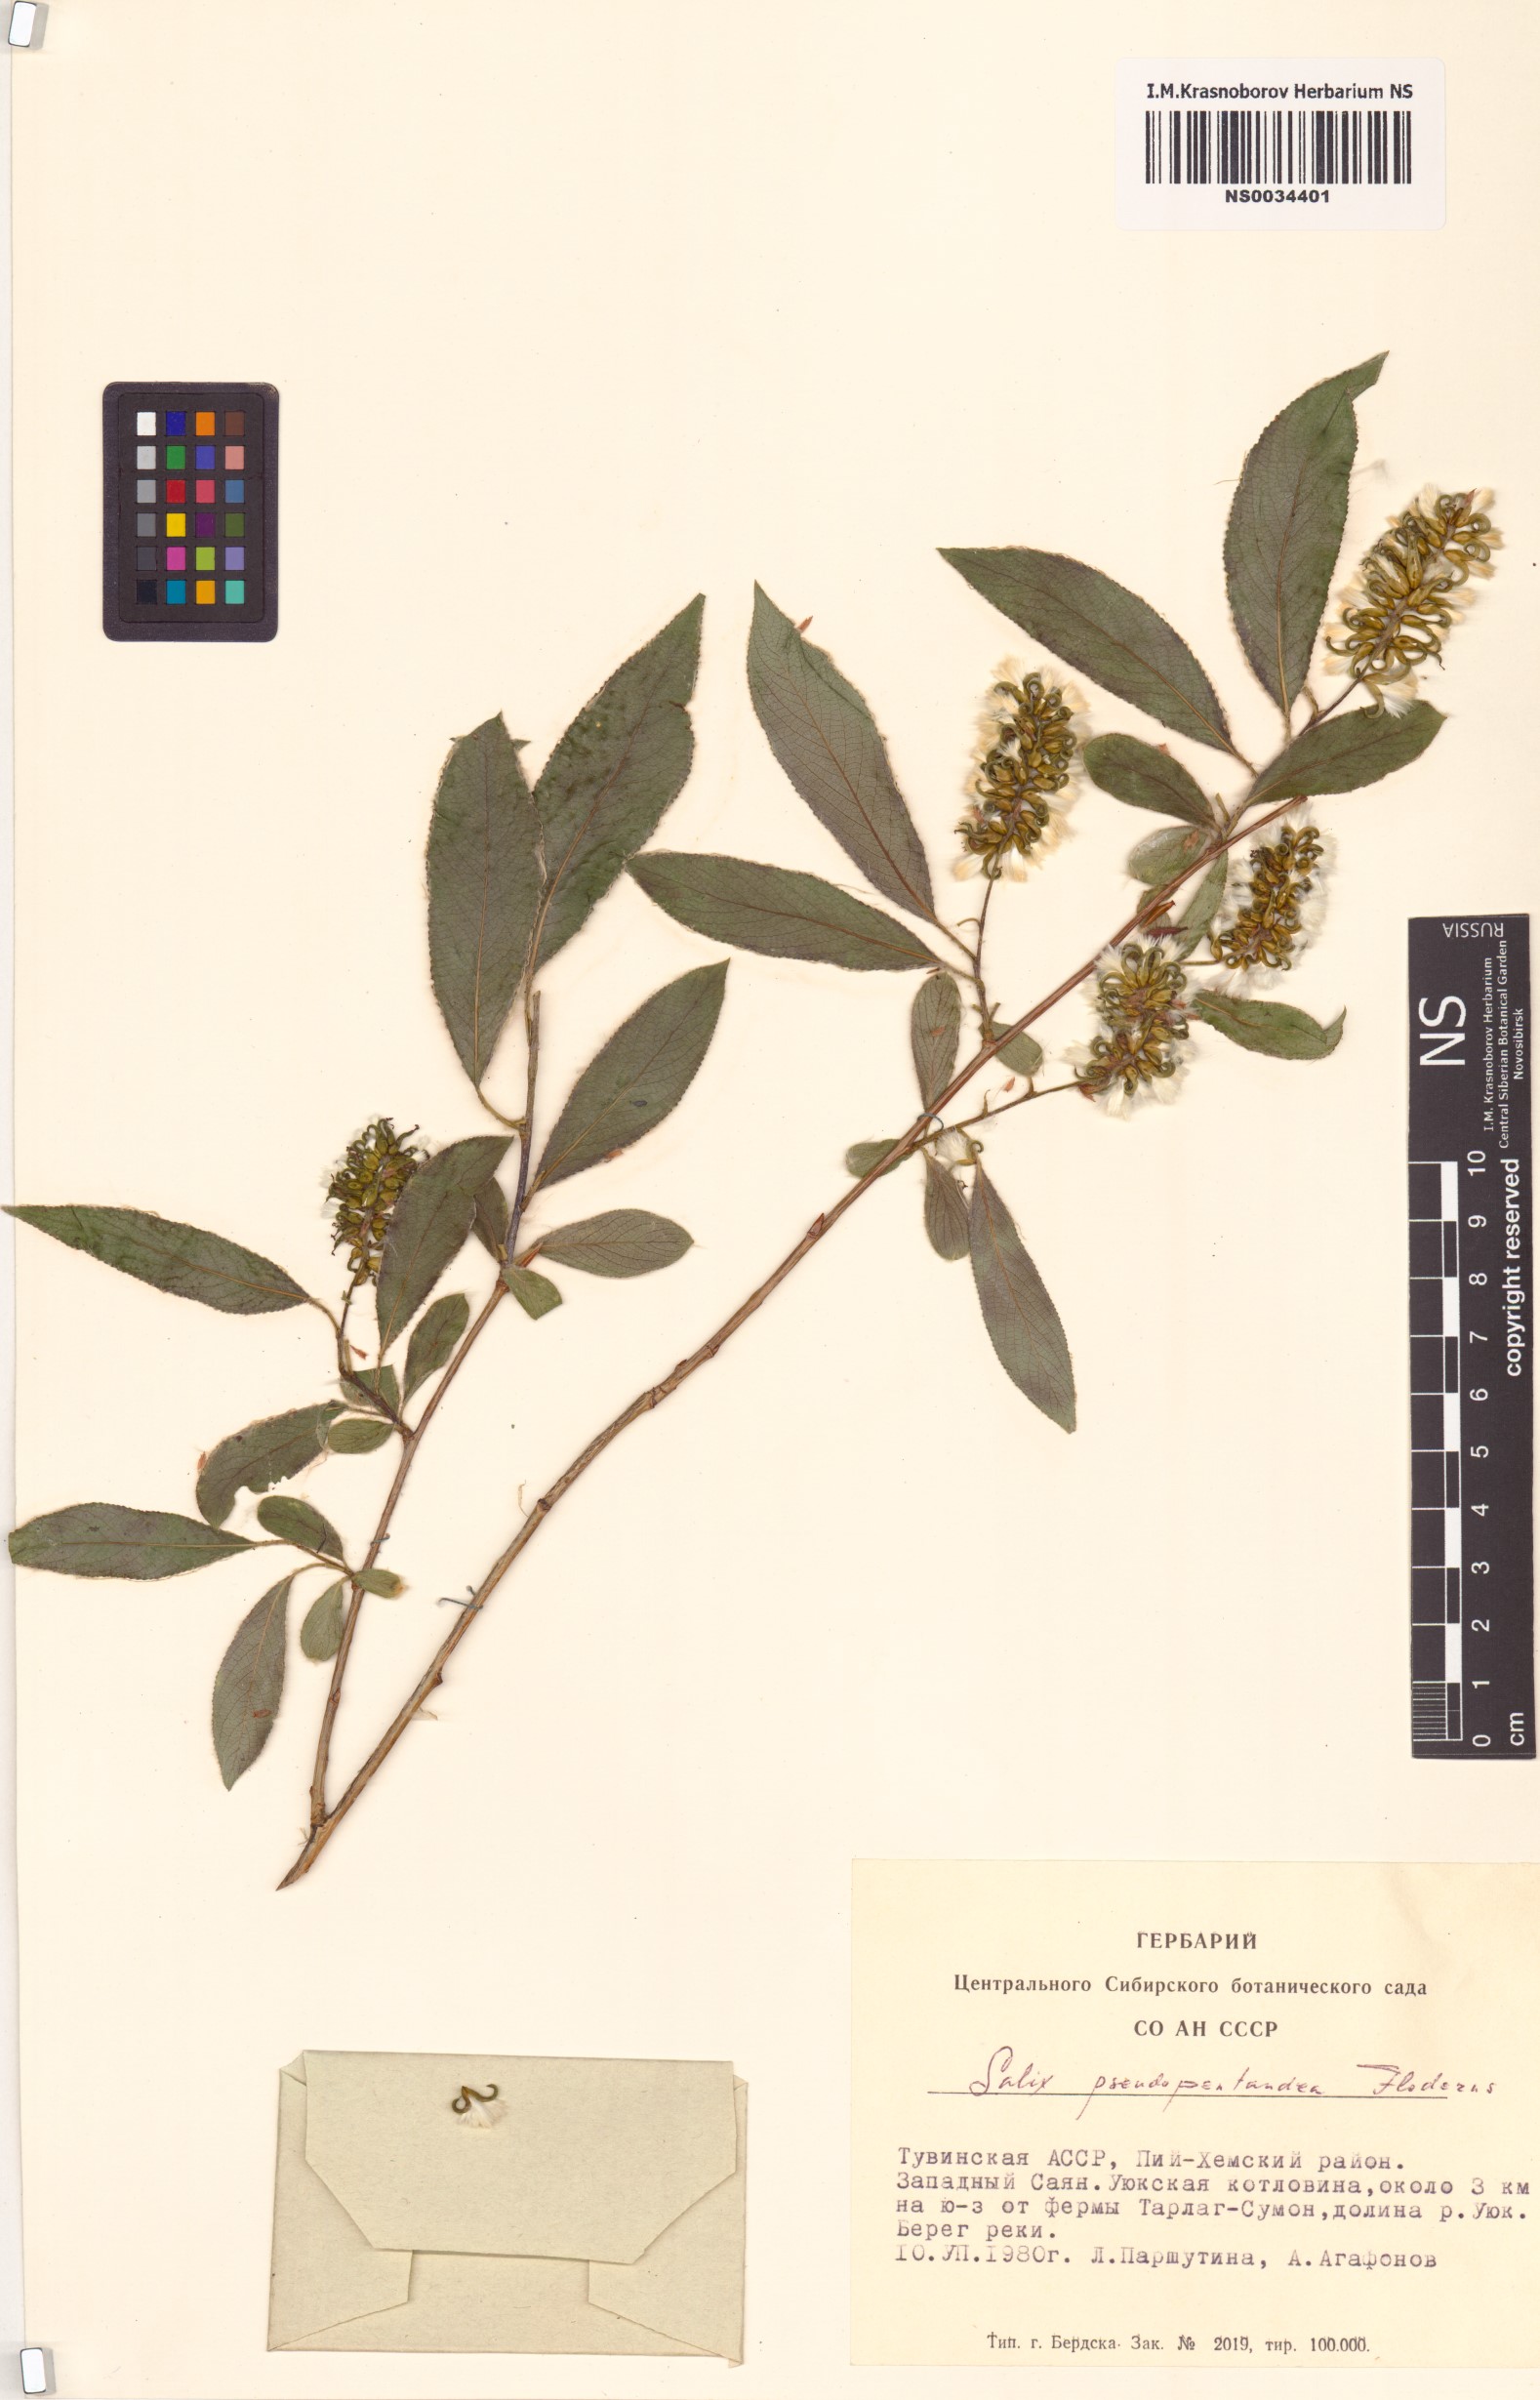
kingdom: Plantae
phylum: Tracheophyta
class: Magnoliopsida
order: Malpighiales
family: Salicaceae
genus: Salix
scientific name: Salix pseudopentandra
